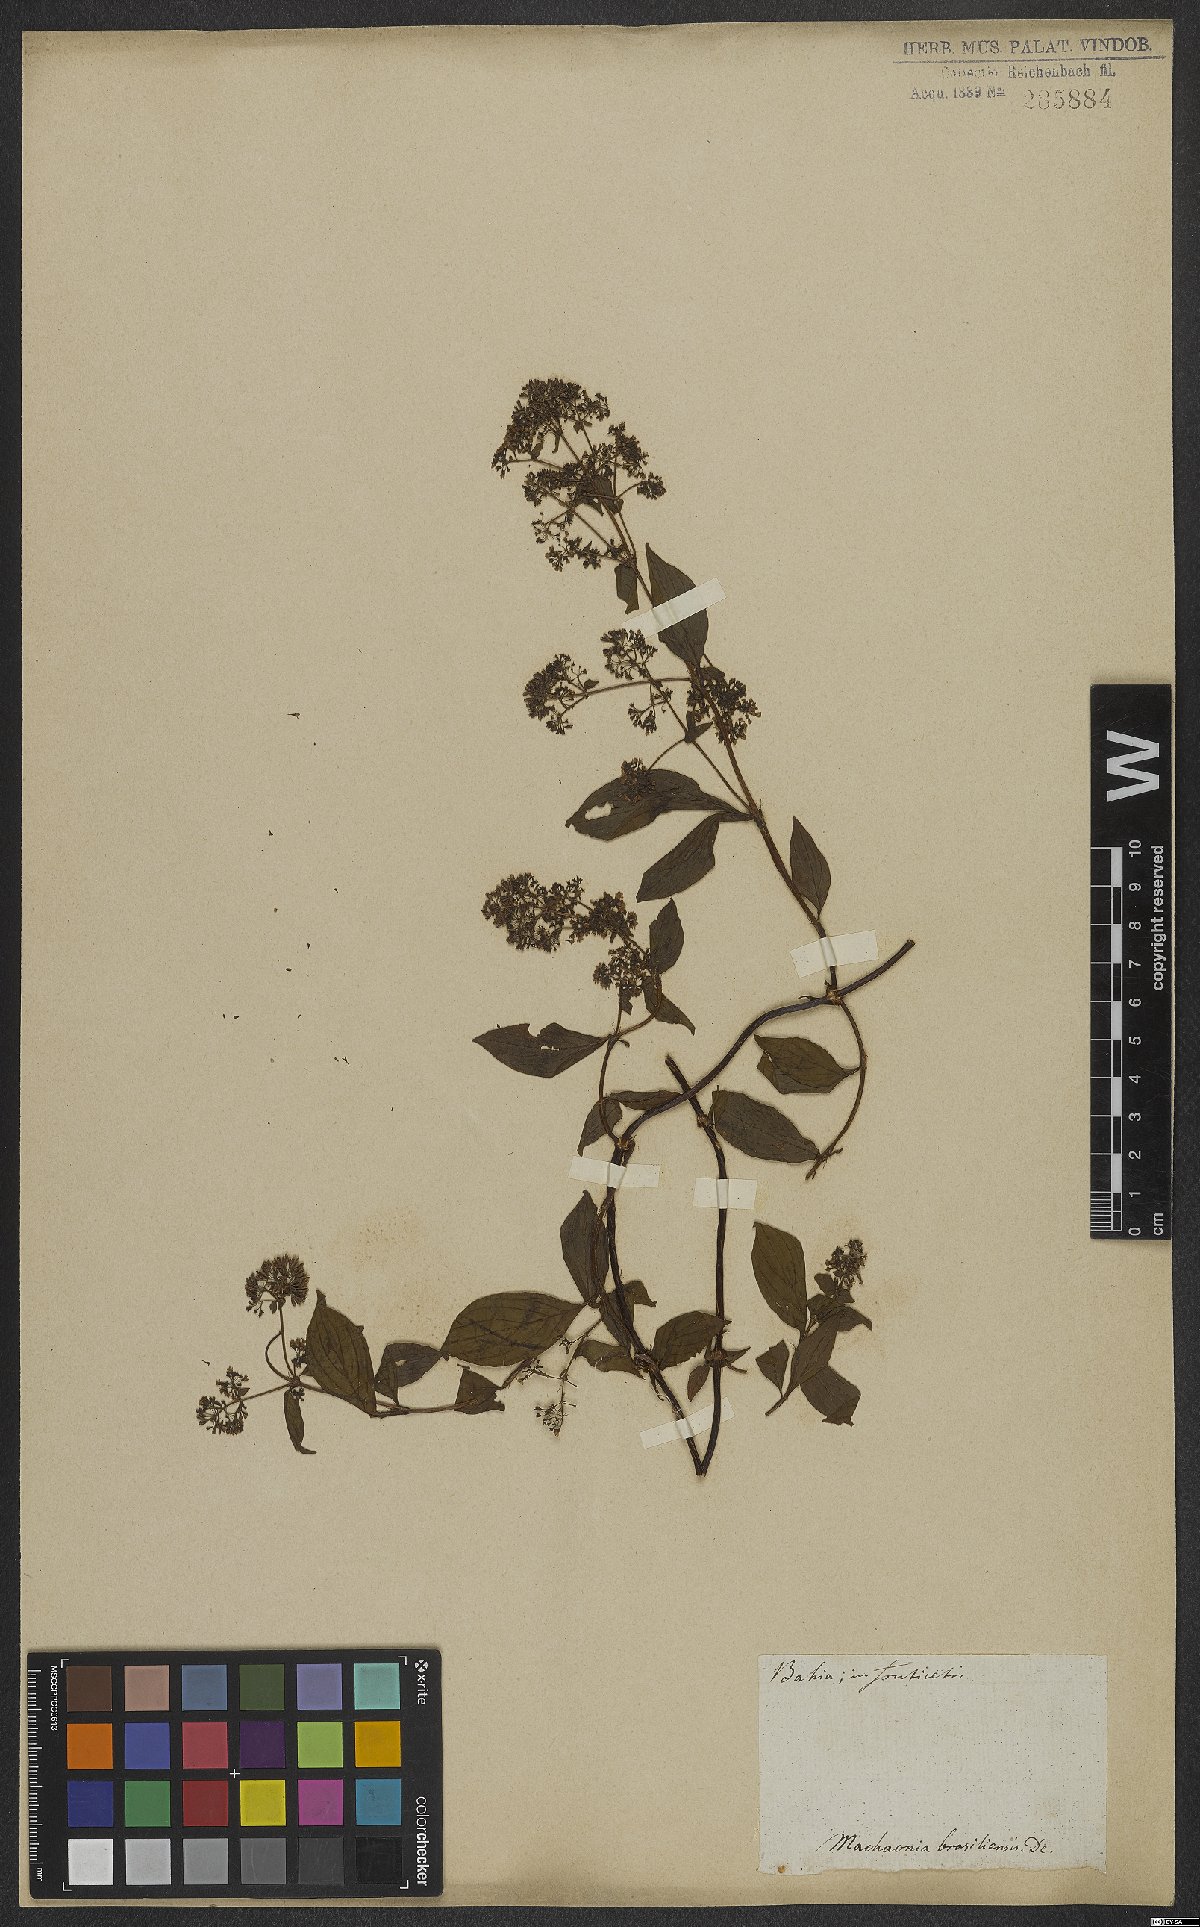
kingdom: Plantae
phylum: Tracheophyta
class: Magnoliopsida
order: Gentianales
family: Rubiaceae
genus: Machaonia
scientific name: Machaonia brasiliensis
